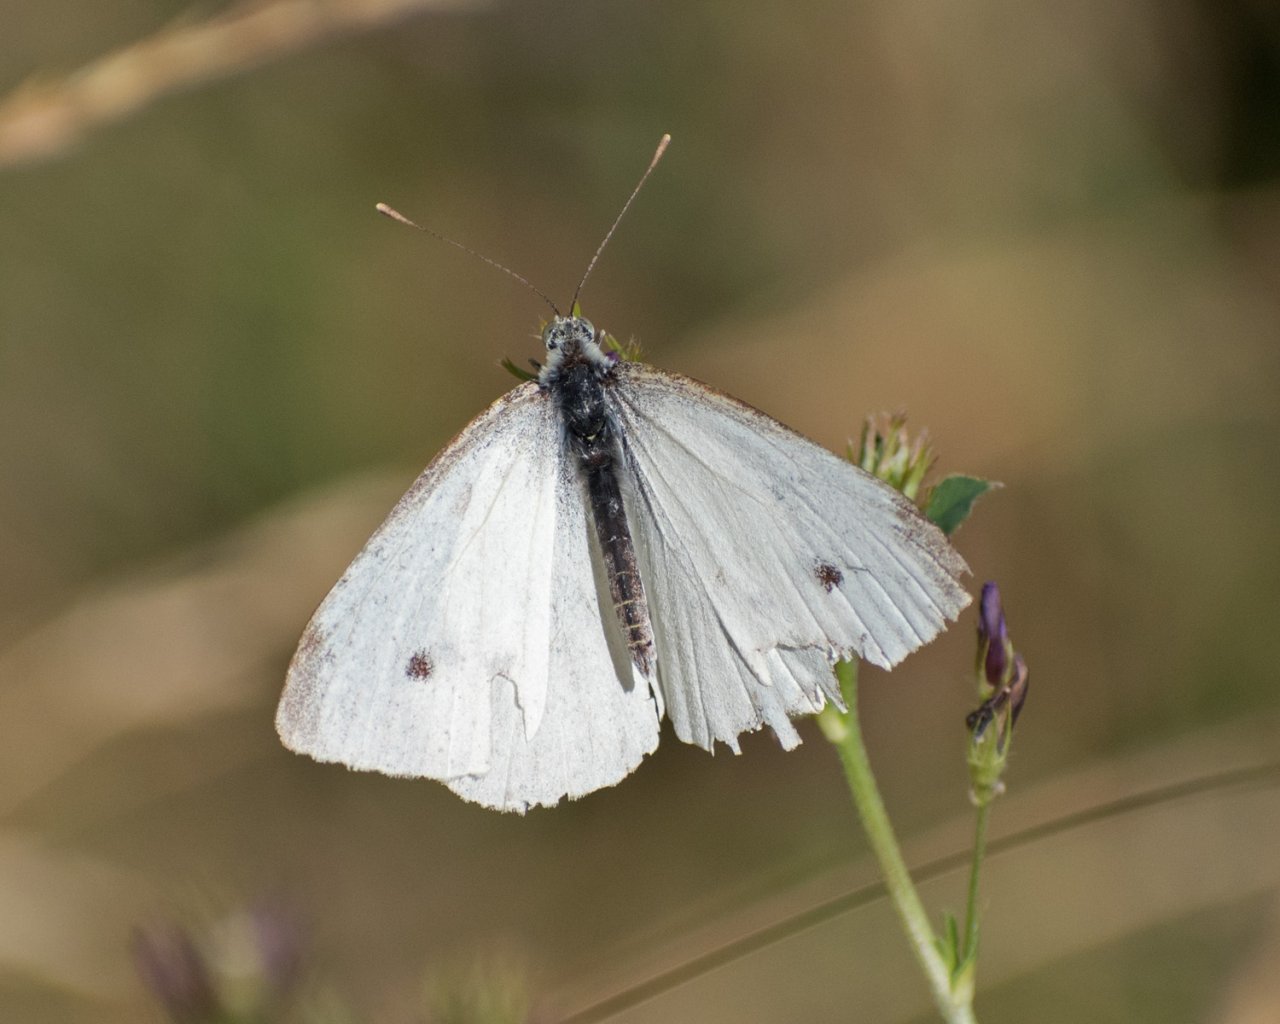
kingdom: Animalia
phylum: Arthropoda
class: Insecta
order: Lepidoptera
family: Pieridae
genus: Pieris
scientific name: Pieris rapae
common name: Cabbage White
